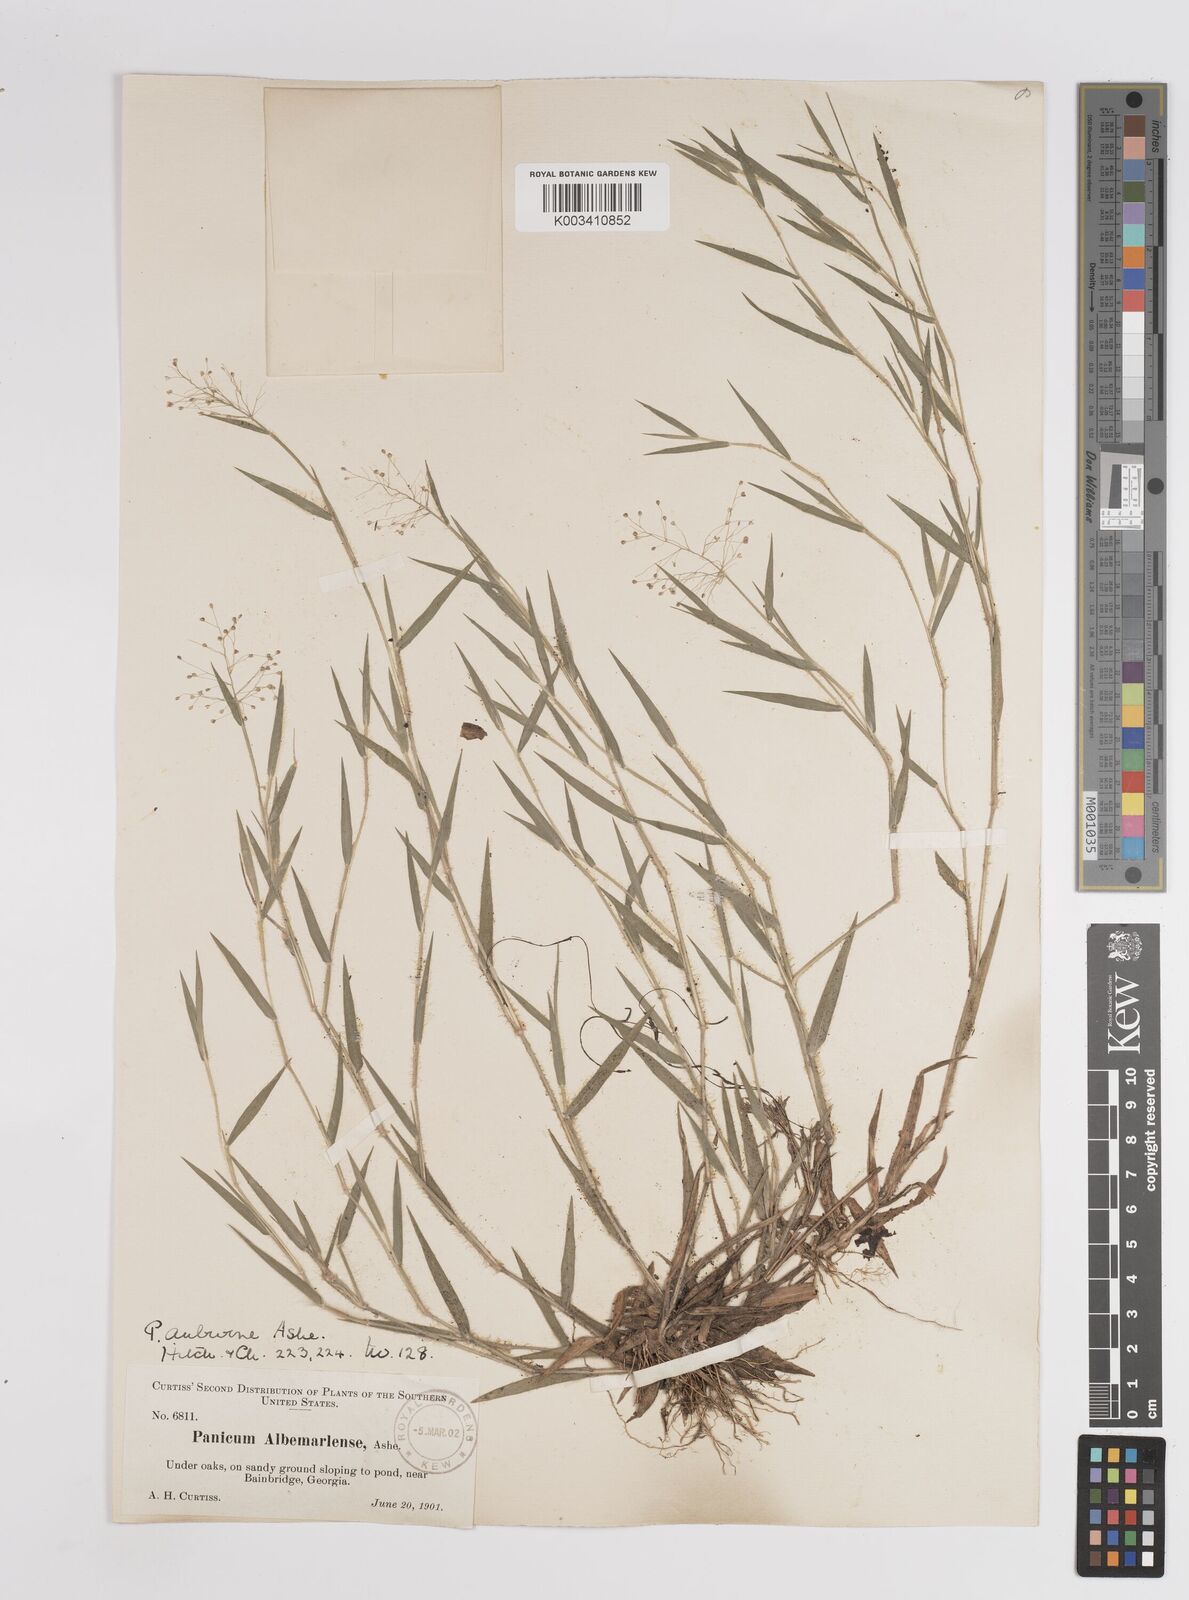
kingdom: Plantae
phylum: Tracheophyta
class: Liliopsida
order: Poales
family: Poaceae
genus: Dichanthelium
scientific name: Dichanthelium acuminatum
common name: Hairy panic grass
